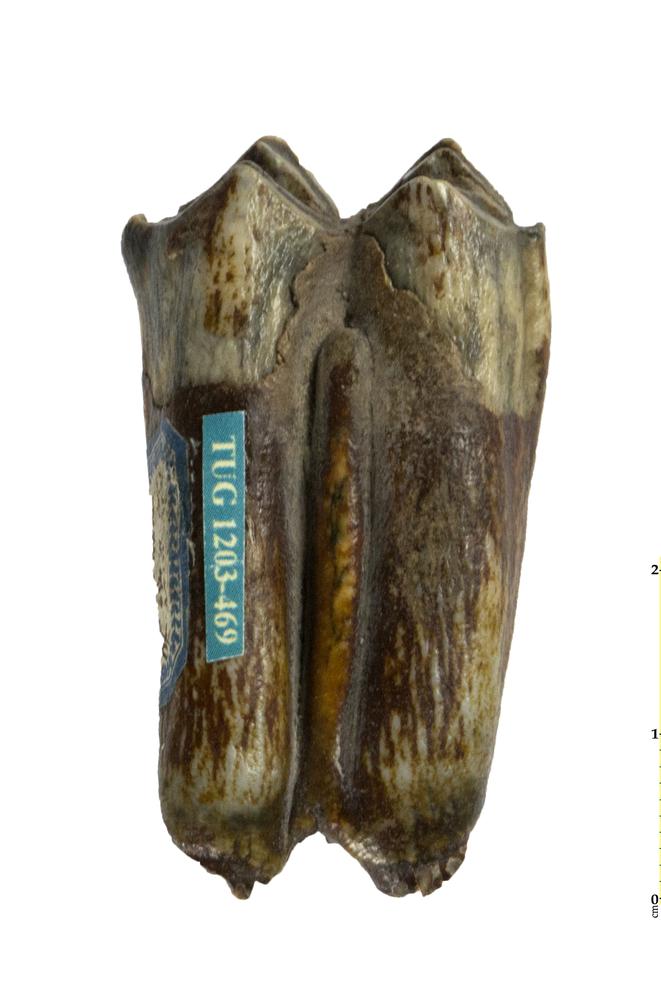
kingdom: Animalia
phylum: Chordata
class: Mammalia
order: Artiodactyla
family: Bovidae
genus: Bos
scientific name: Bos
